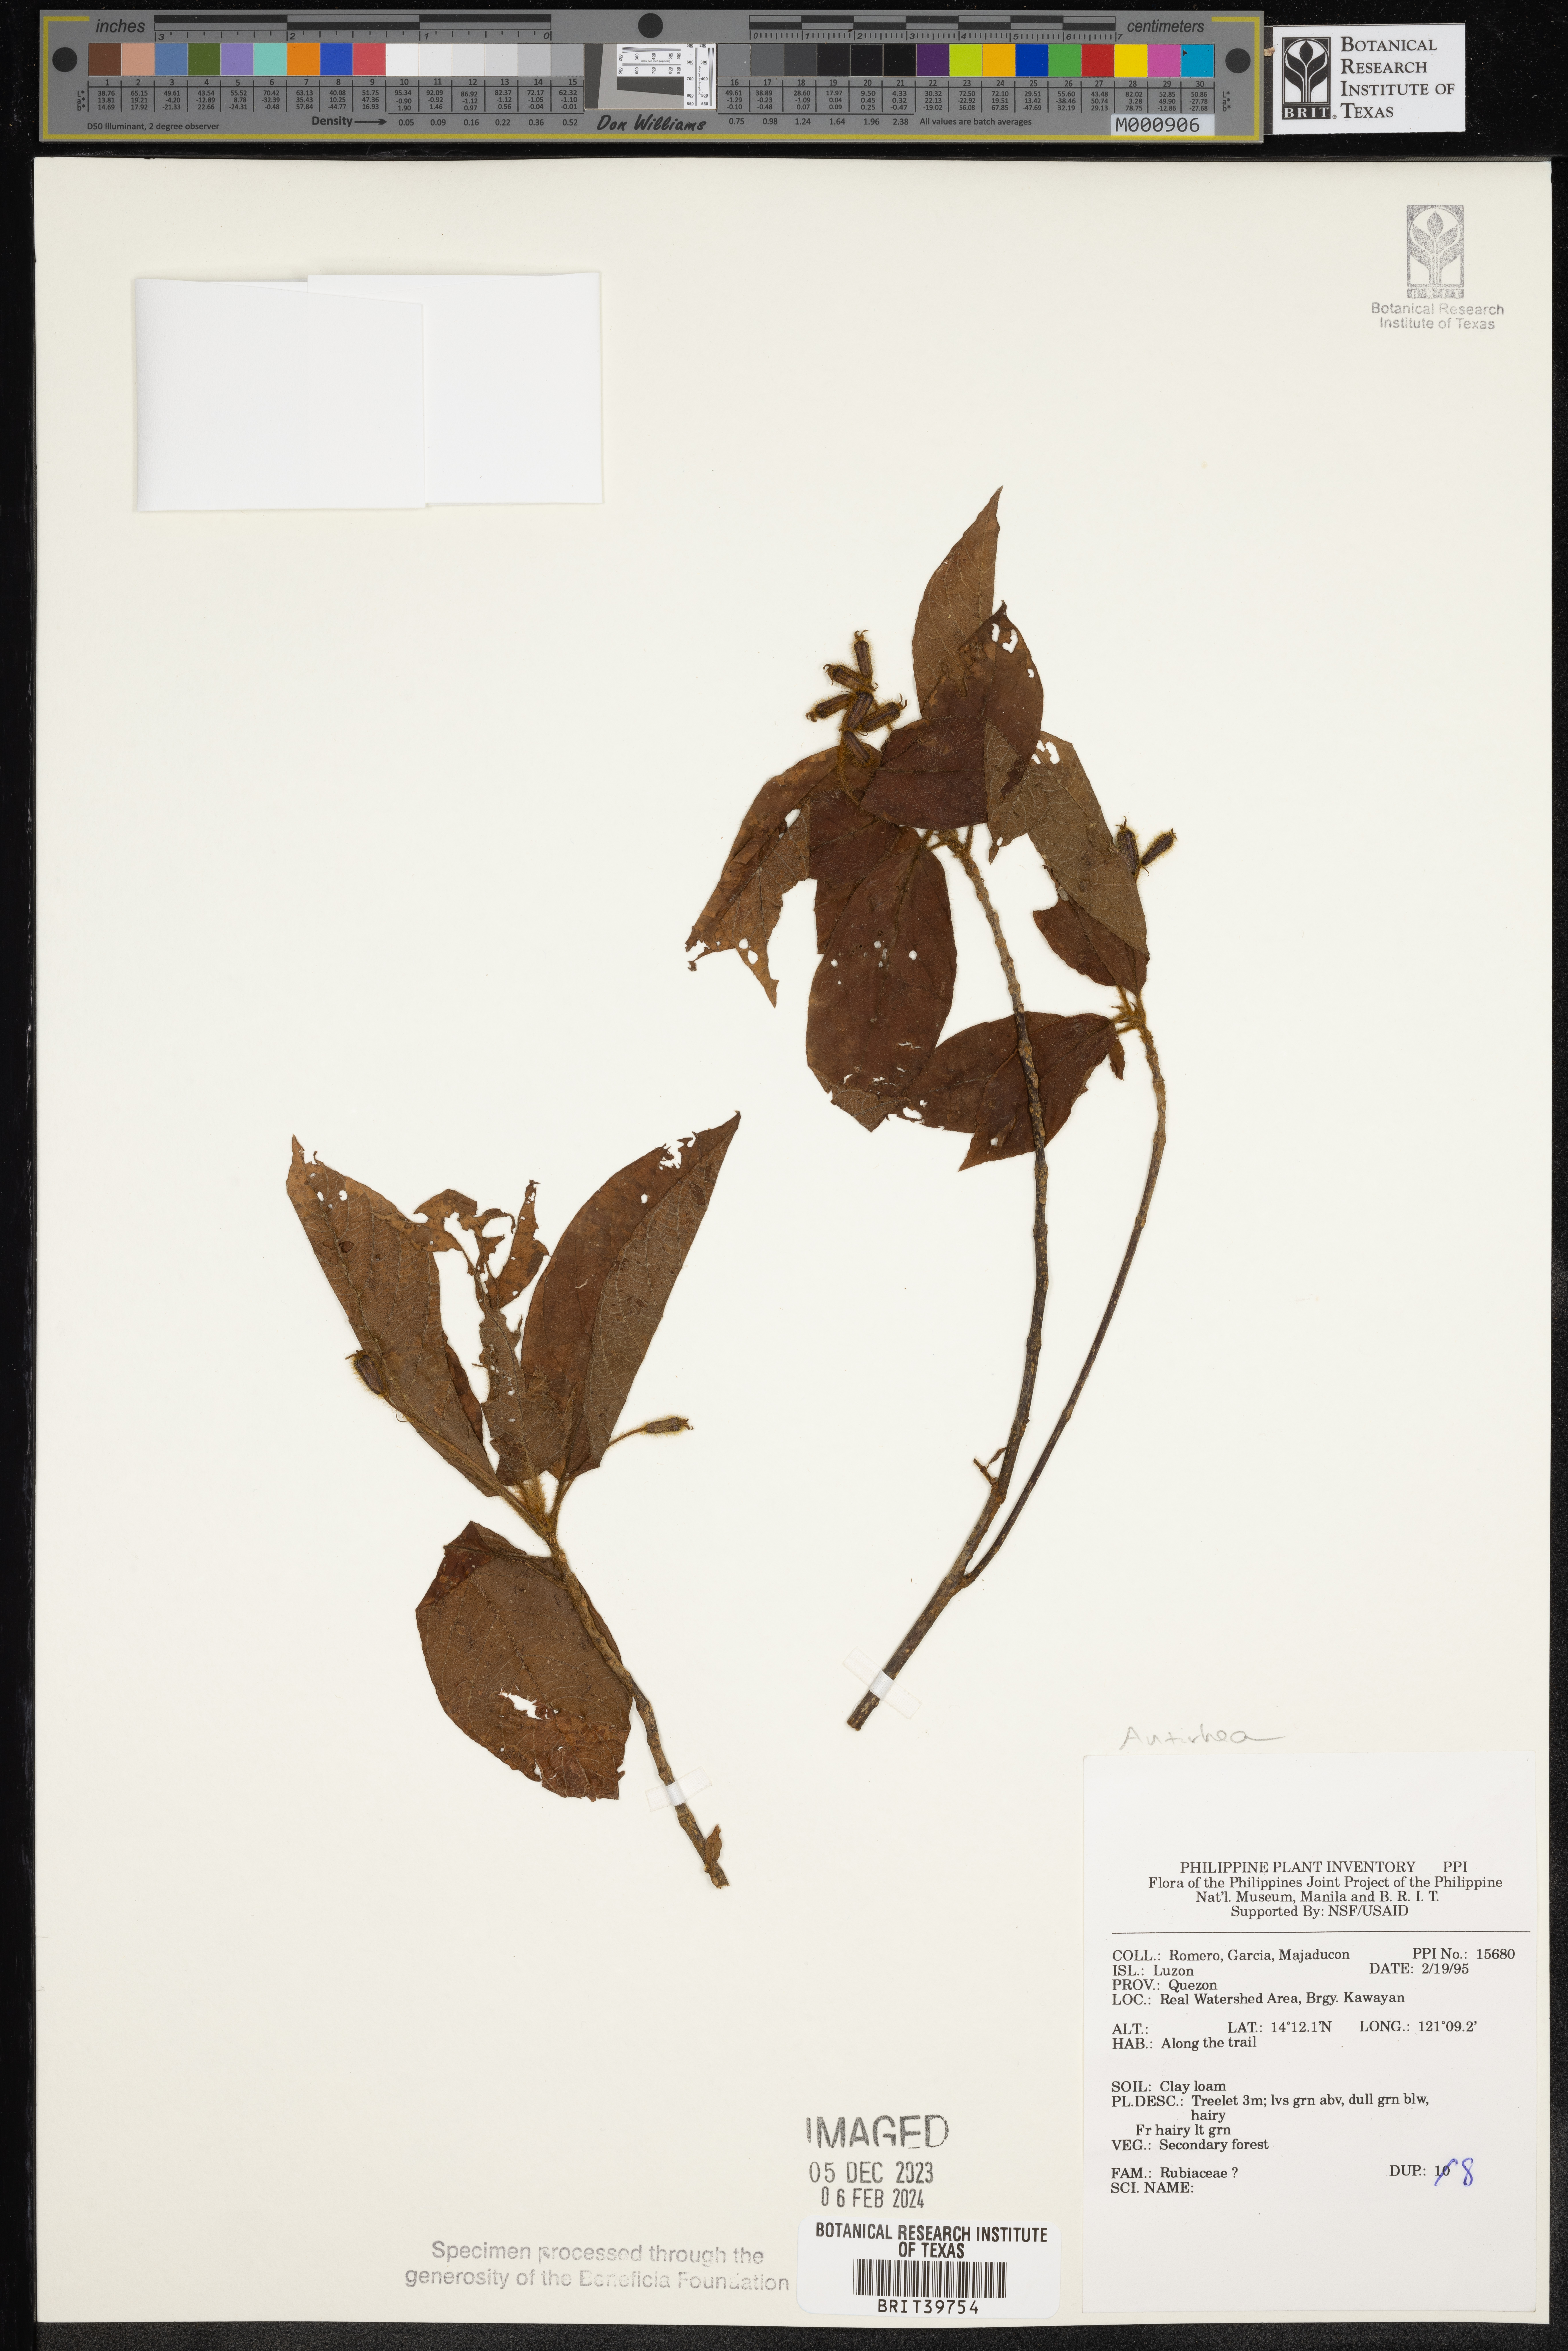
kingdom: Plantae
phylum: Tracheophyta
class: Magnoliopsida
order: Gentianales
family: Rubiaceae
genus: Antirhea
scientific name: Antirhea
